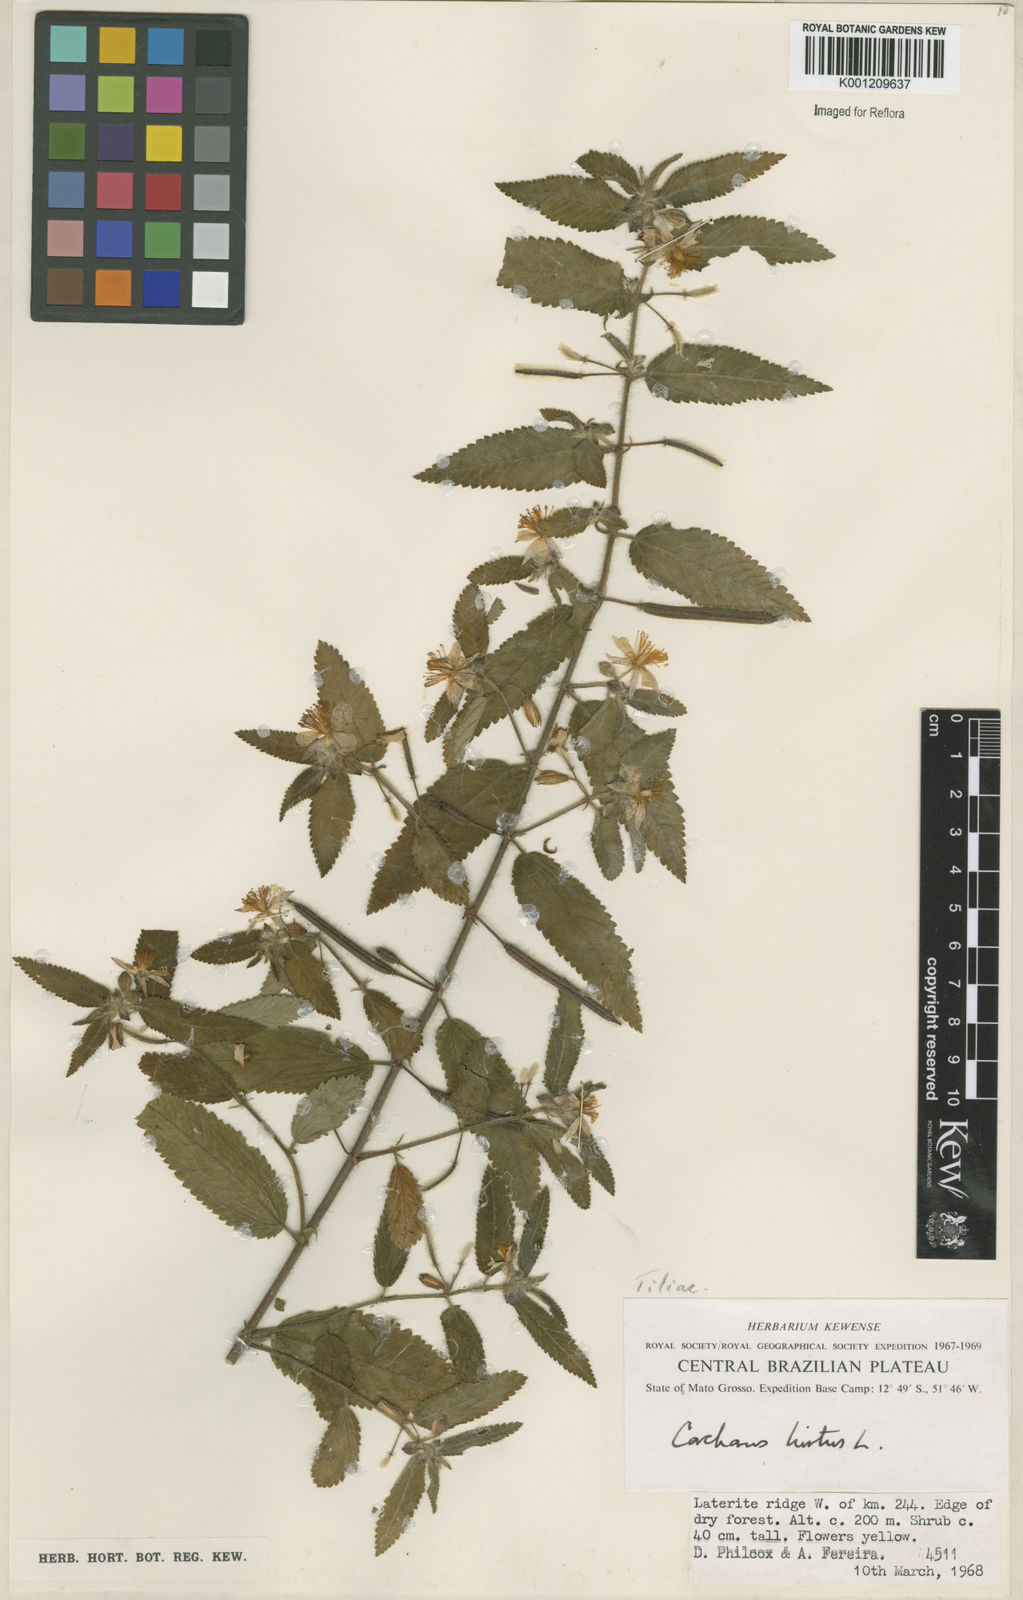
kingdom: Plantae
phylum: Tracheophyta
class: Magnoliopsida
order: Malvales
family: Malvaceae
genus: Corchorus
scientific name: Corchorus hirtus
